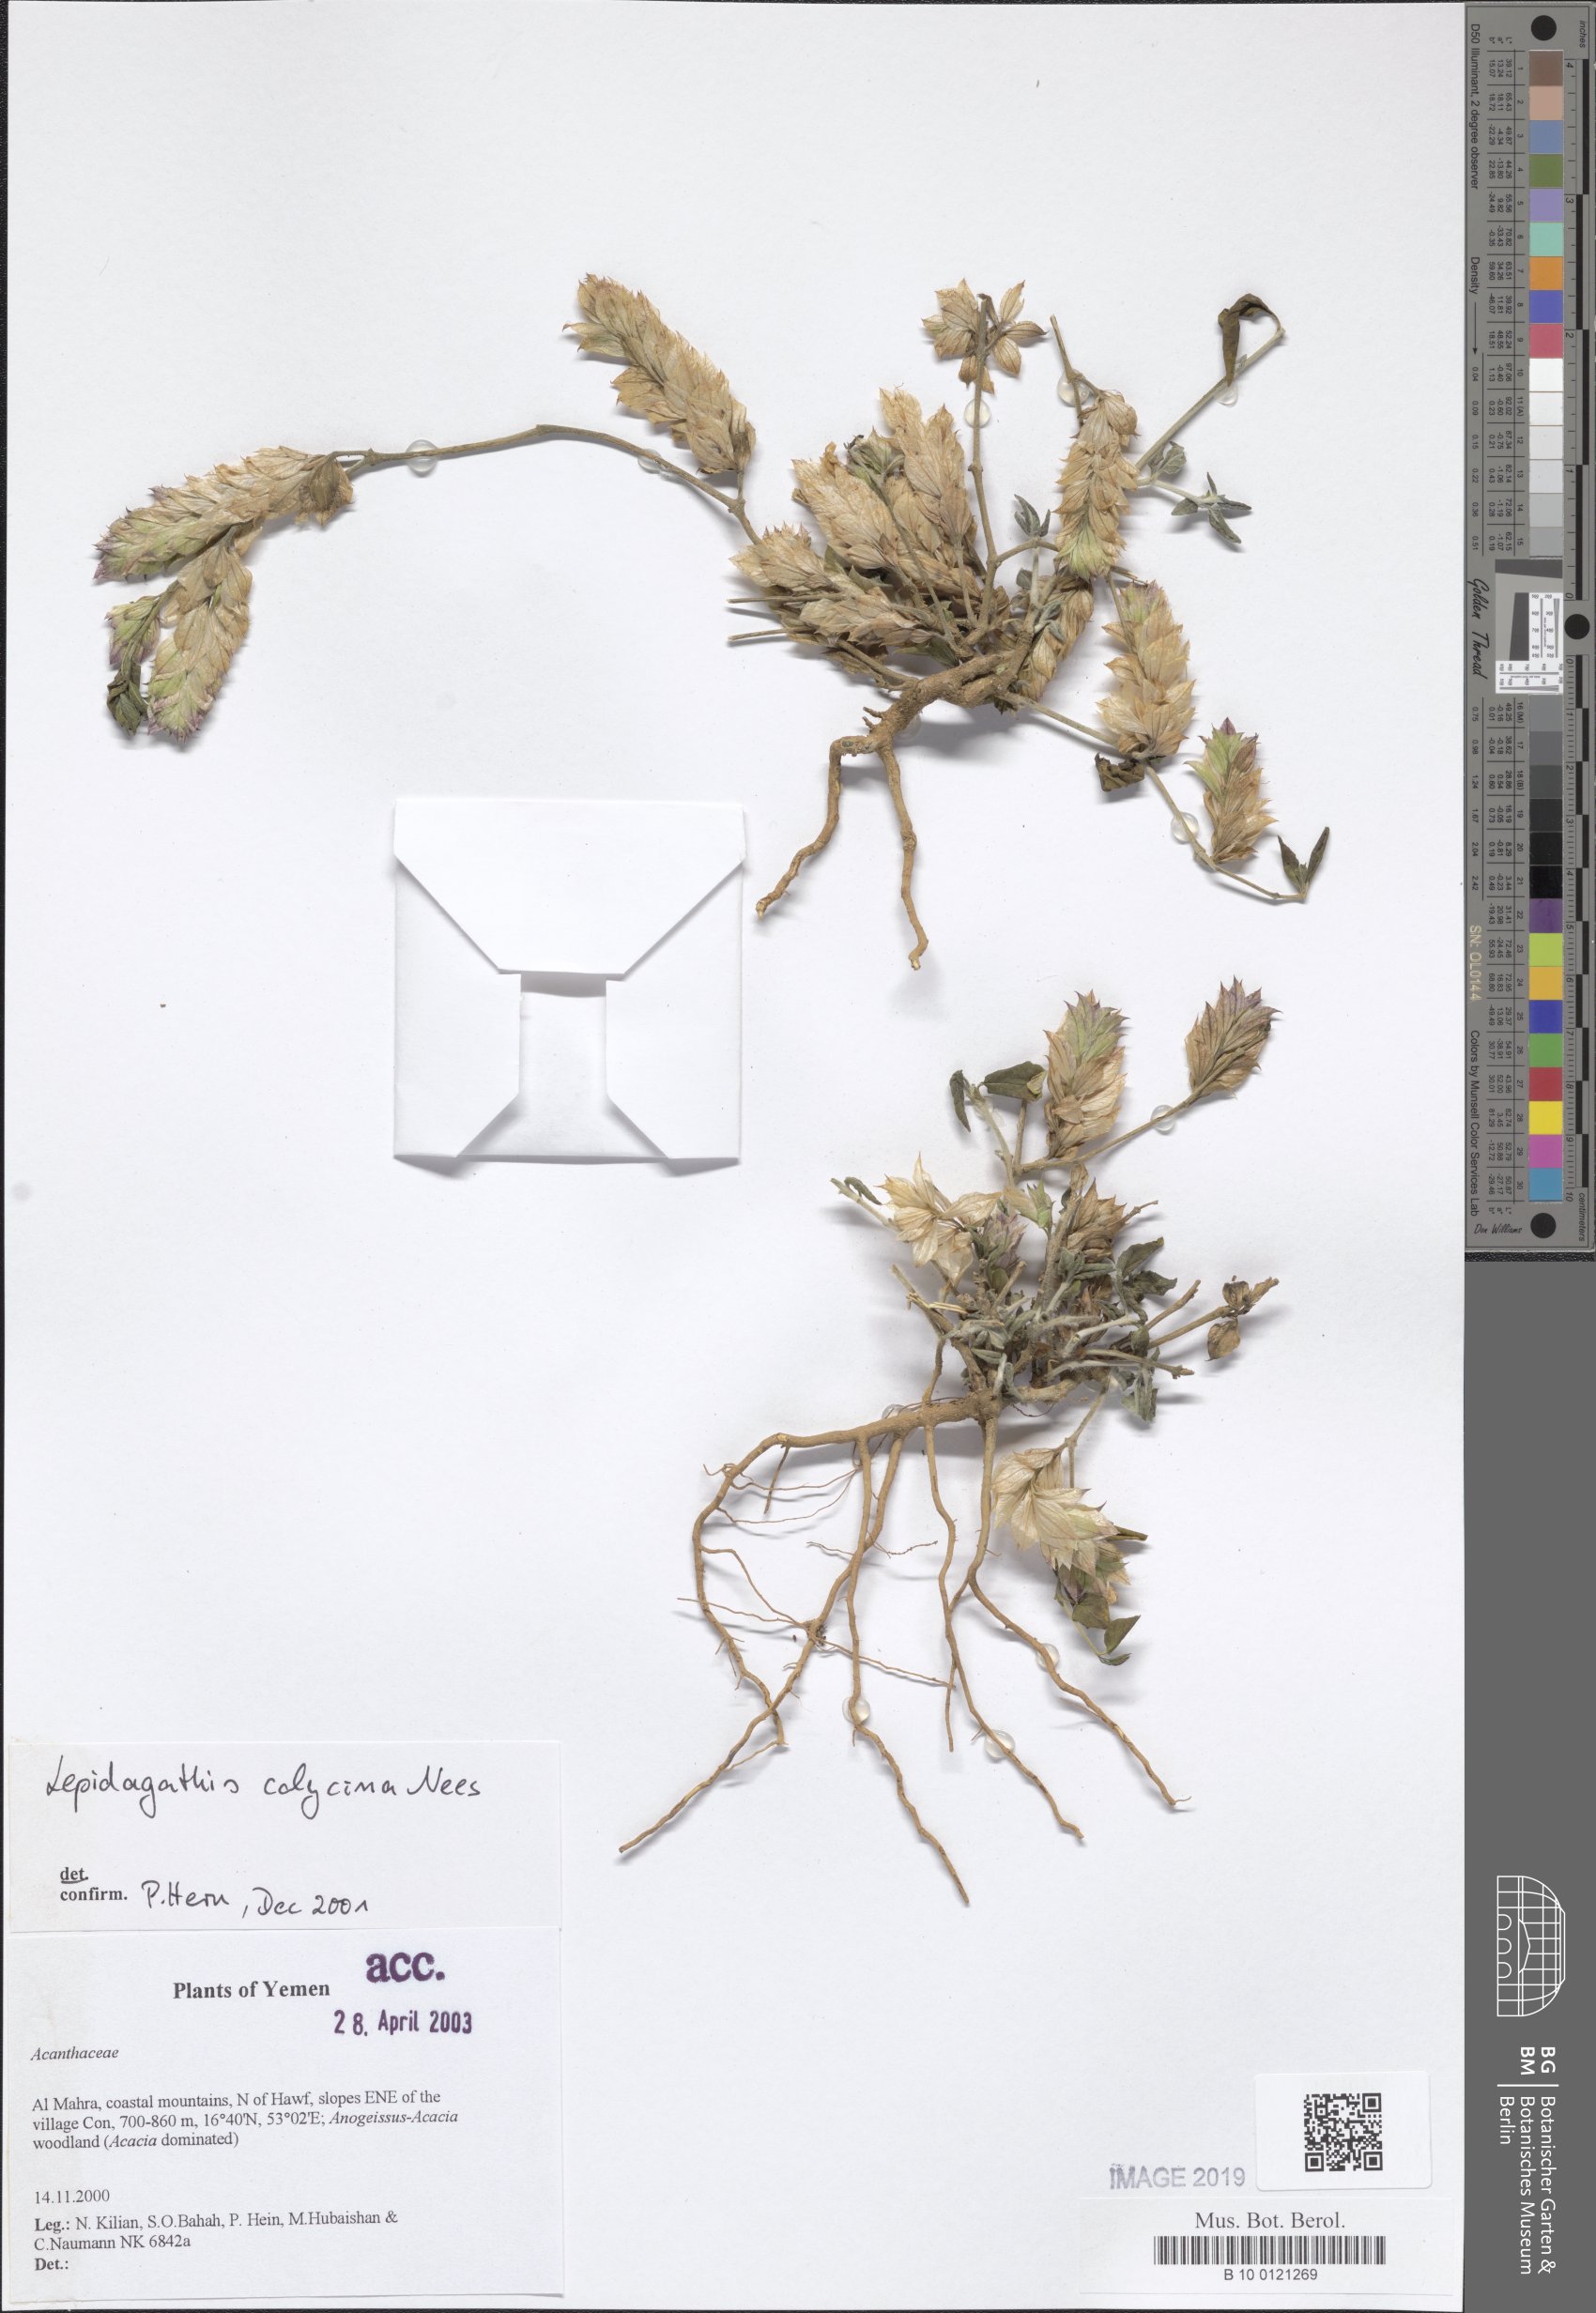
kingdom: Plantae
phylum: Tracheophyta
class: Magnoliopsida
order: Lamiales
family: Acanthaceae
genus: Lepidagathis
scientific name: Lepidagathis calycina
